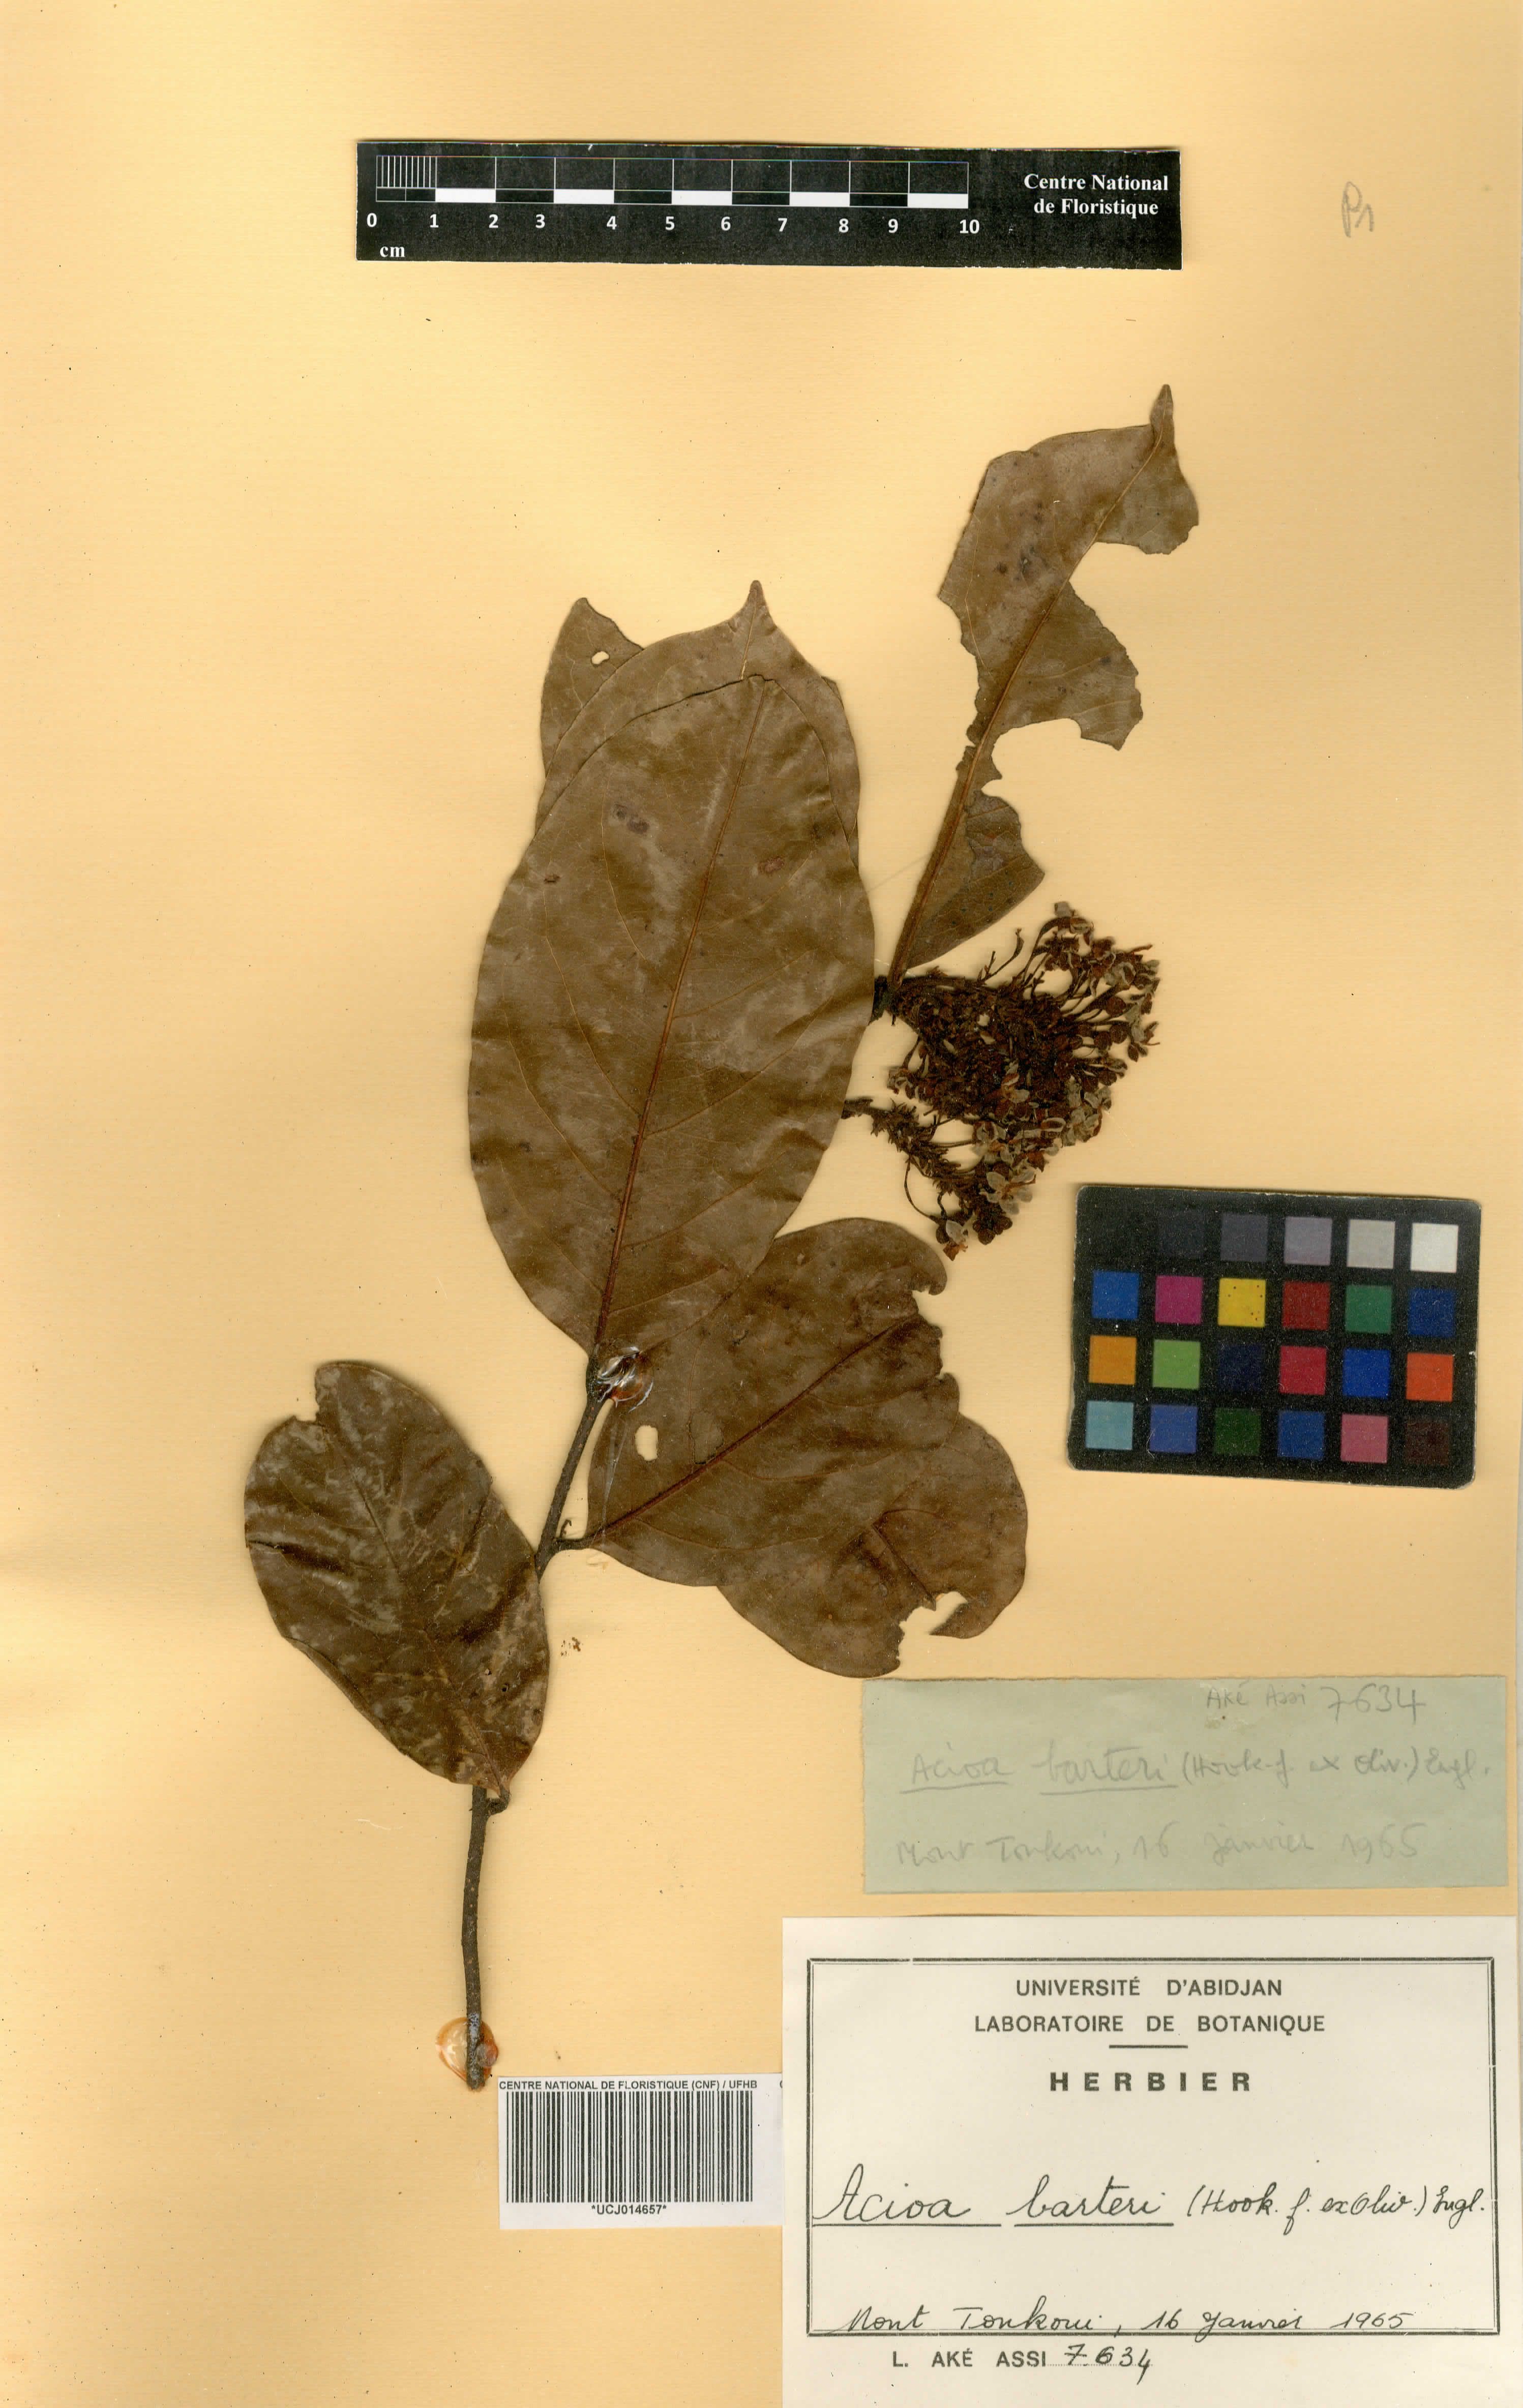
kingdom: Plantae
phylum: Tracheophyta
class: Magnoliopsida
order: Malpighiales
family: Chrysobalanaceae
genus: Dactyladenia
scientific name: Dactyladenia barteri
